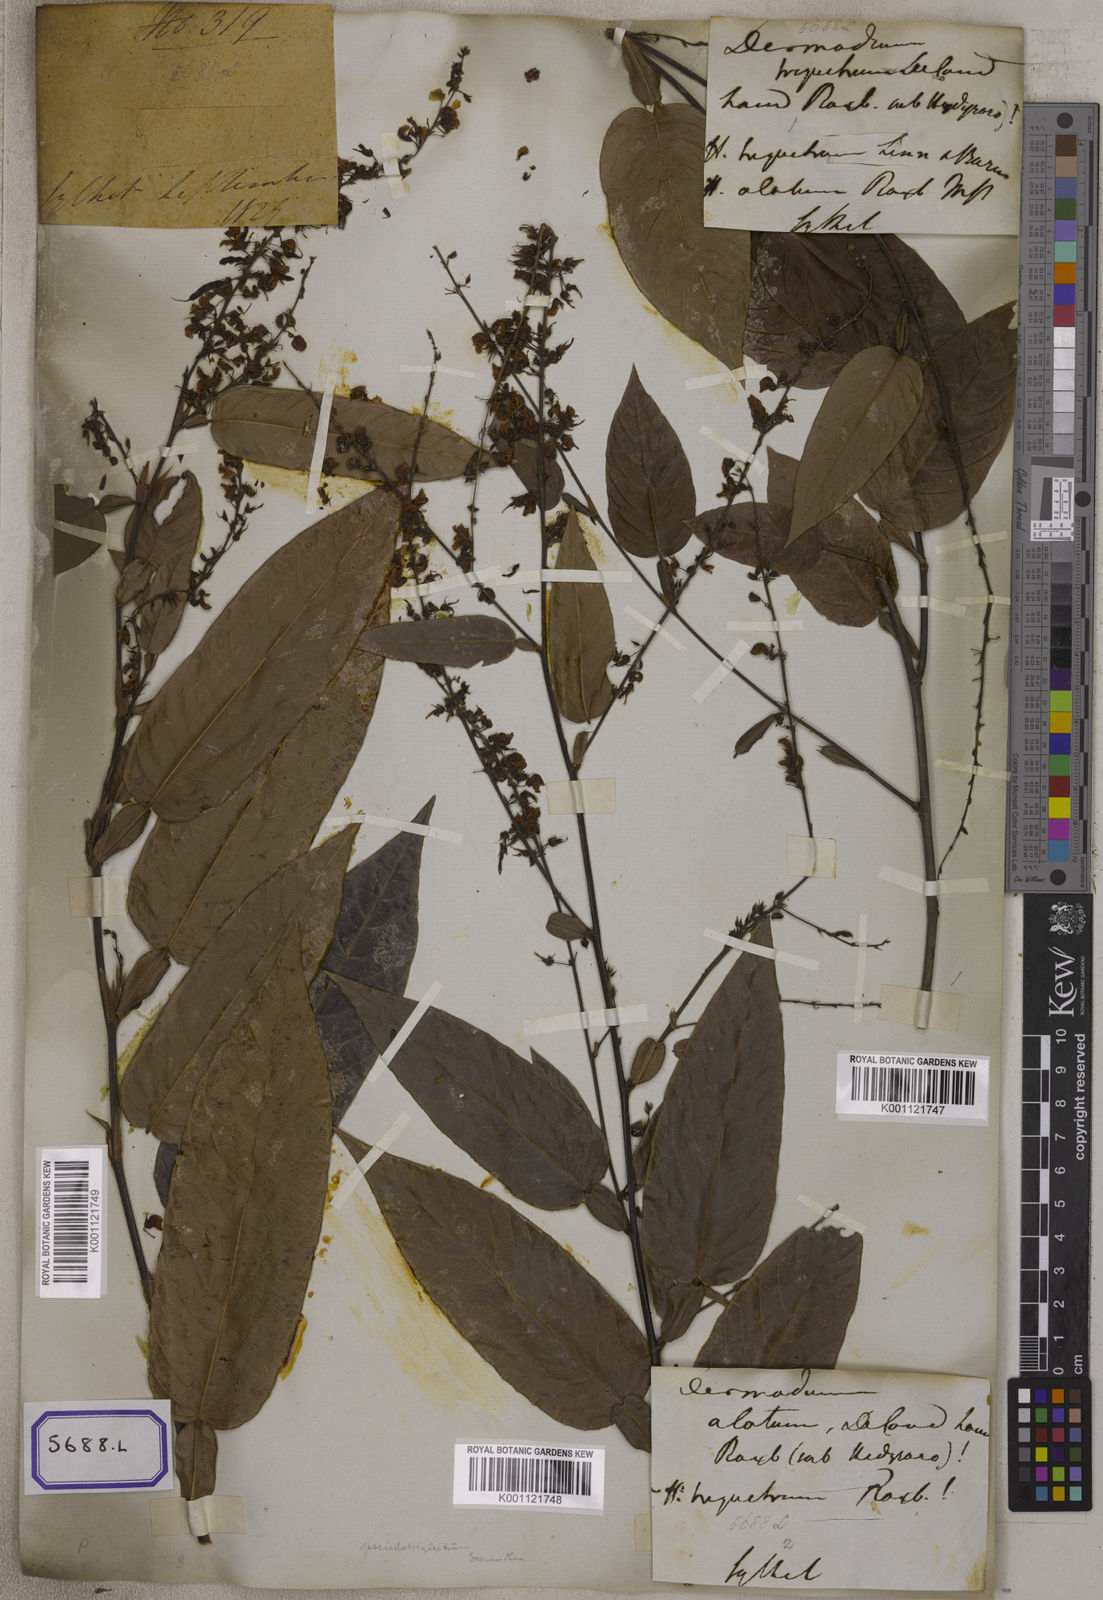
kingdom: Plantae
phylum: Tracheophyta
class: Magnoliopsida
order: Fabales
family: Fabaceae
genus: Tadehagi
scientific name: Tadehagi triquetrum
